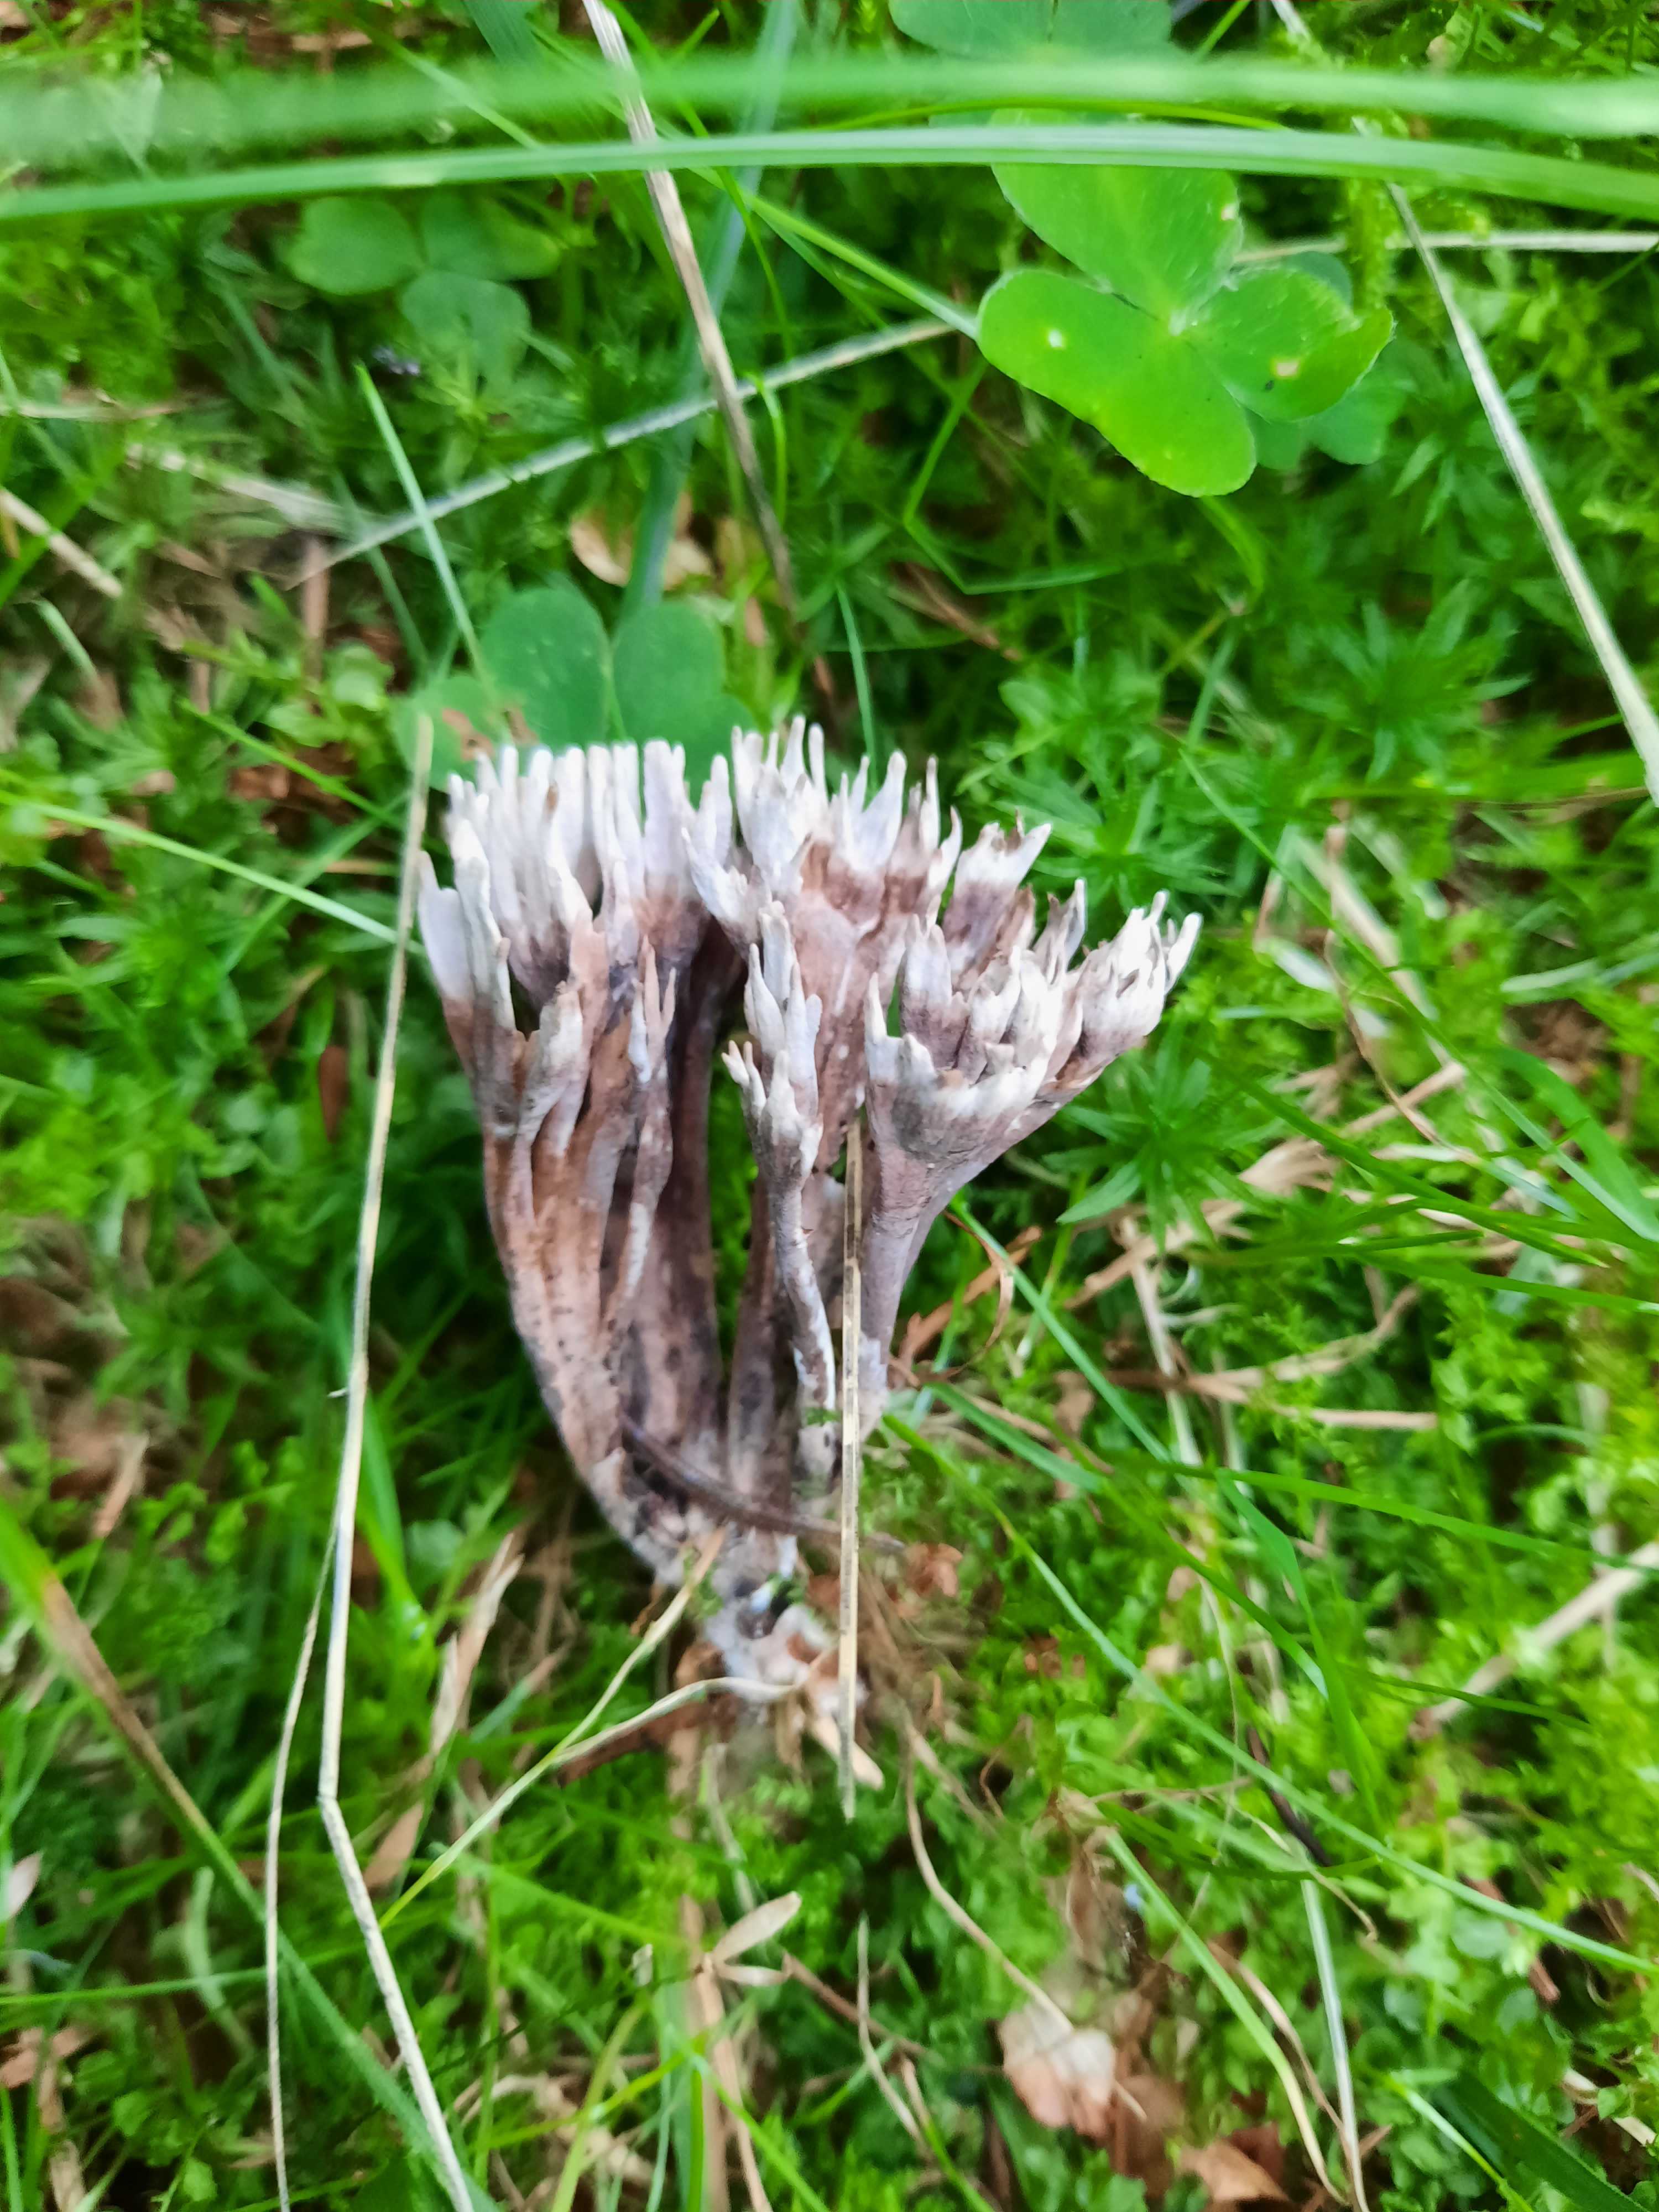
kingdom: Fungi
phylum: Basidiomycota
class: Agaricomycetes
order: Thelephorales
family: Thelephoraceae
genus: Thelephora
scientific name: Thelephora palmata
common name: grenet frynsesvamp
